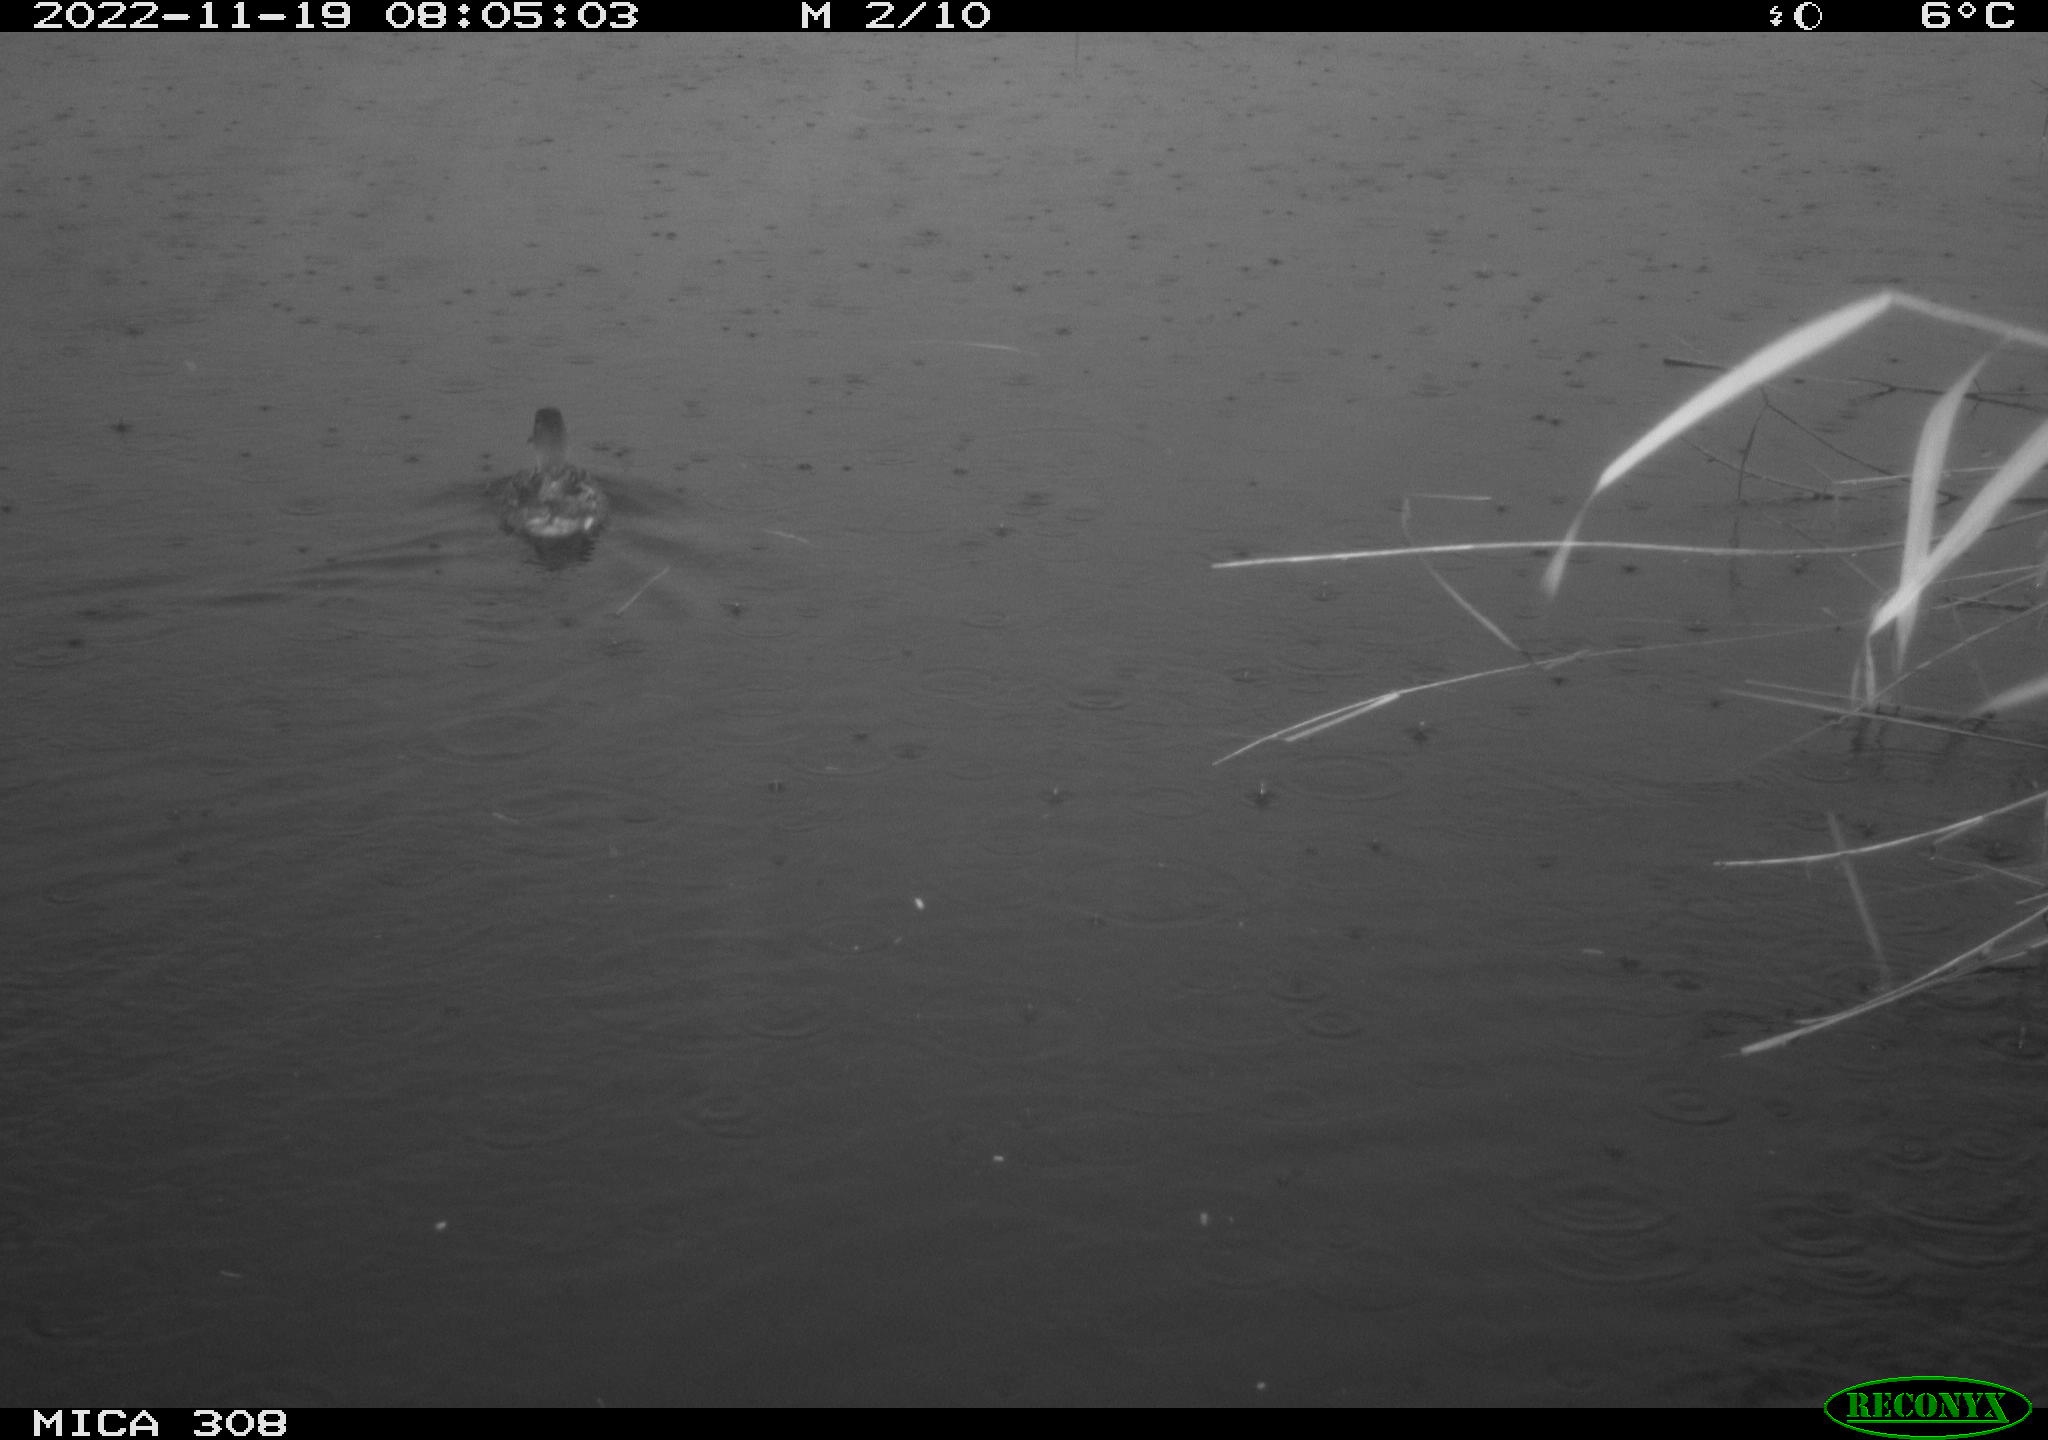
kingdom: Animalia
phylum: Chordata
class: Aves
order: Anseriformes
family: Anatidae
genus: Anas
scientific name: Anas
